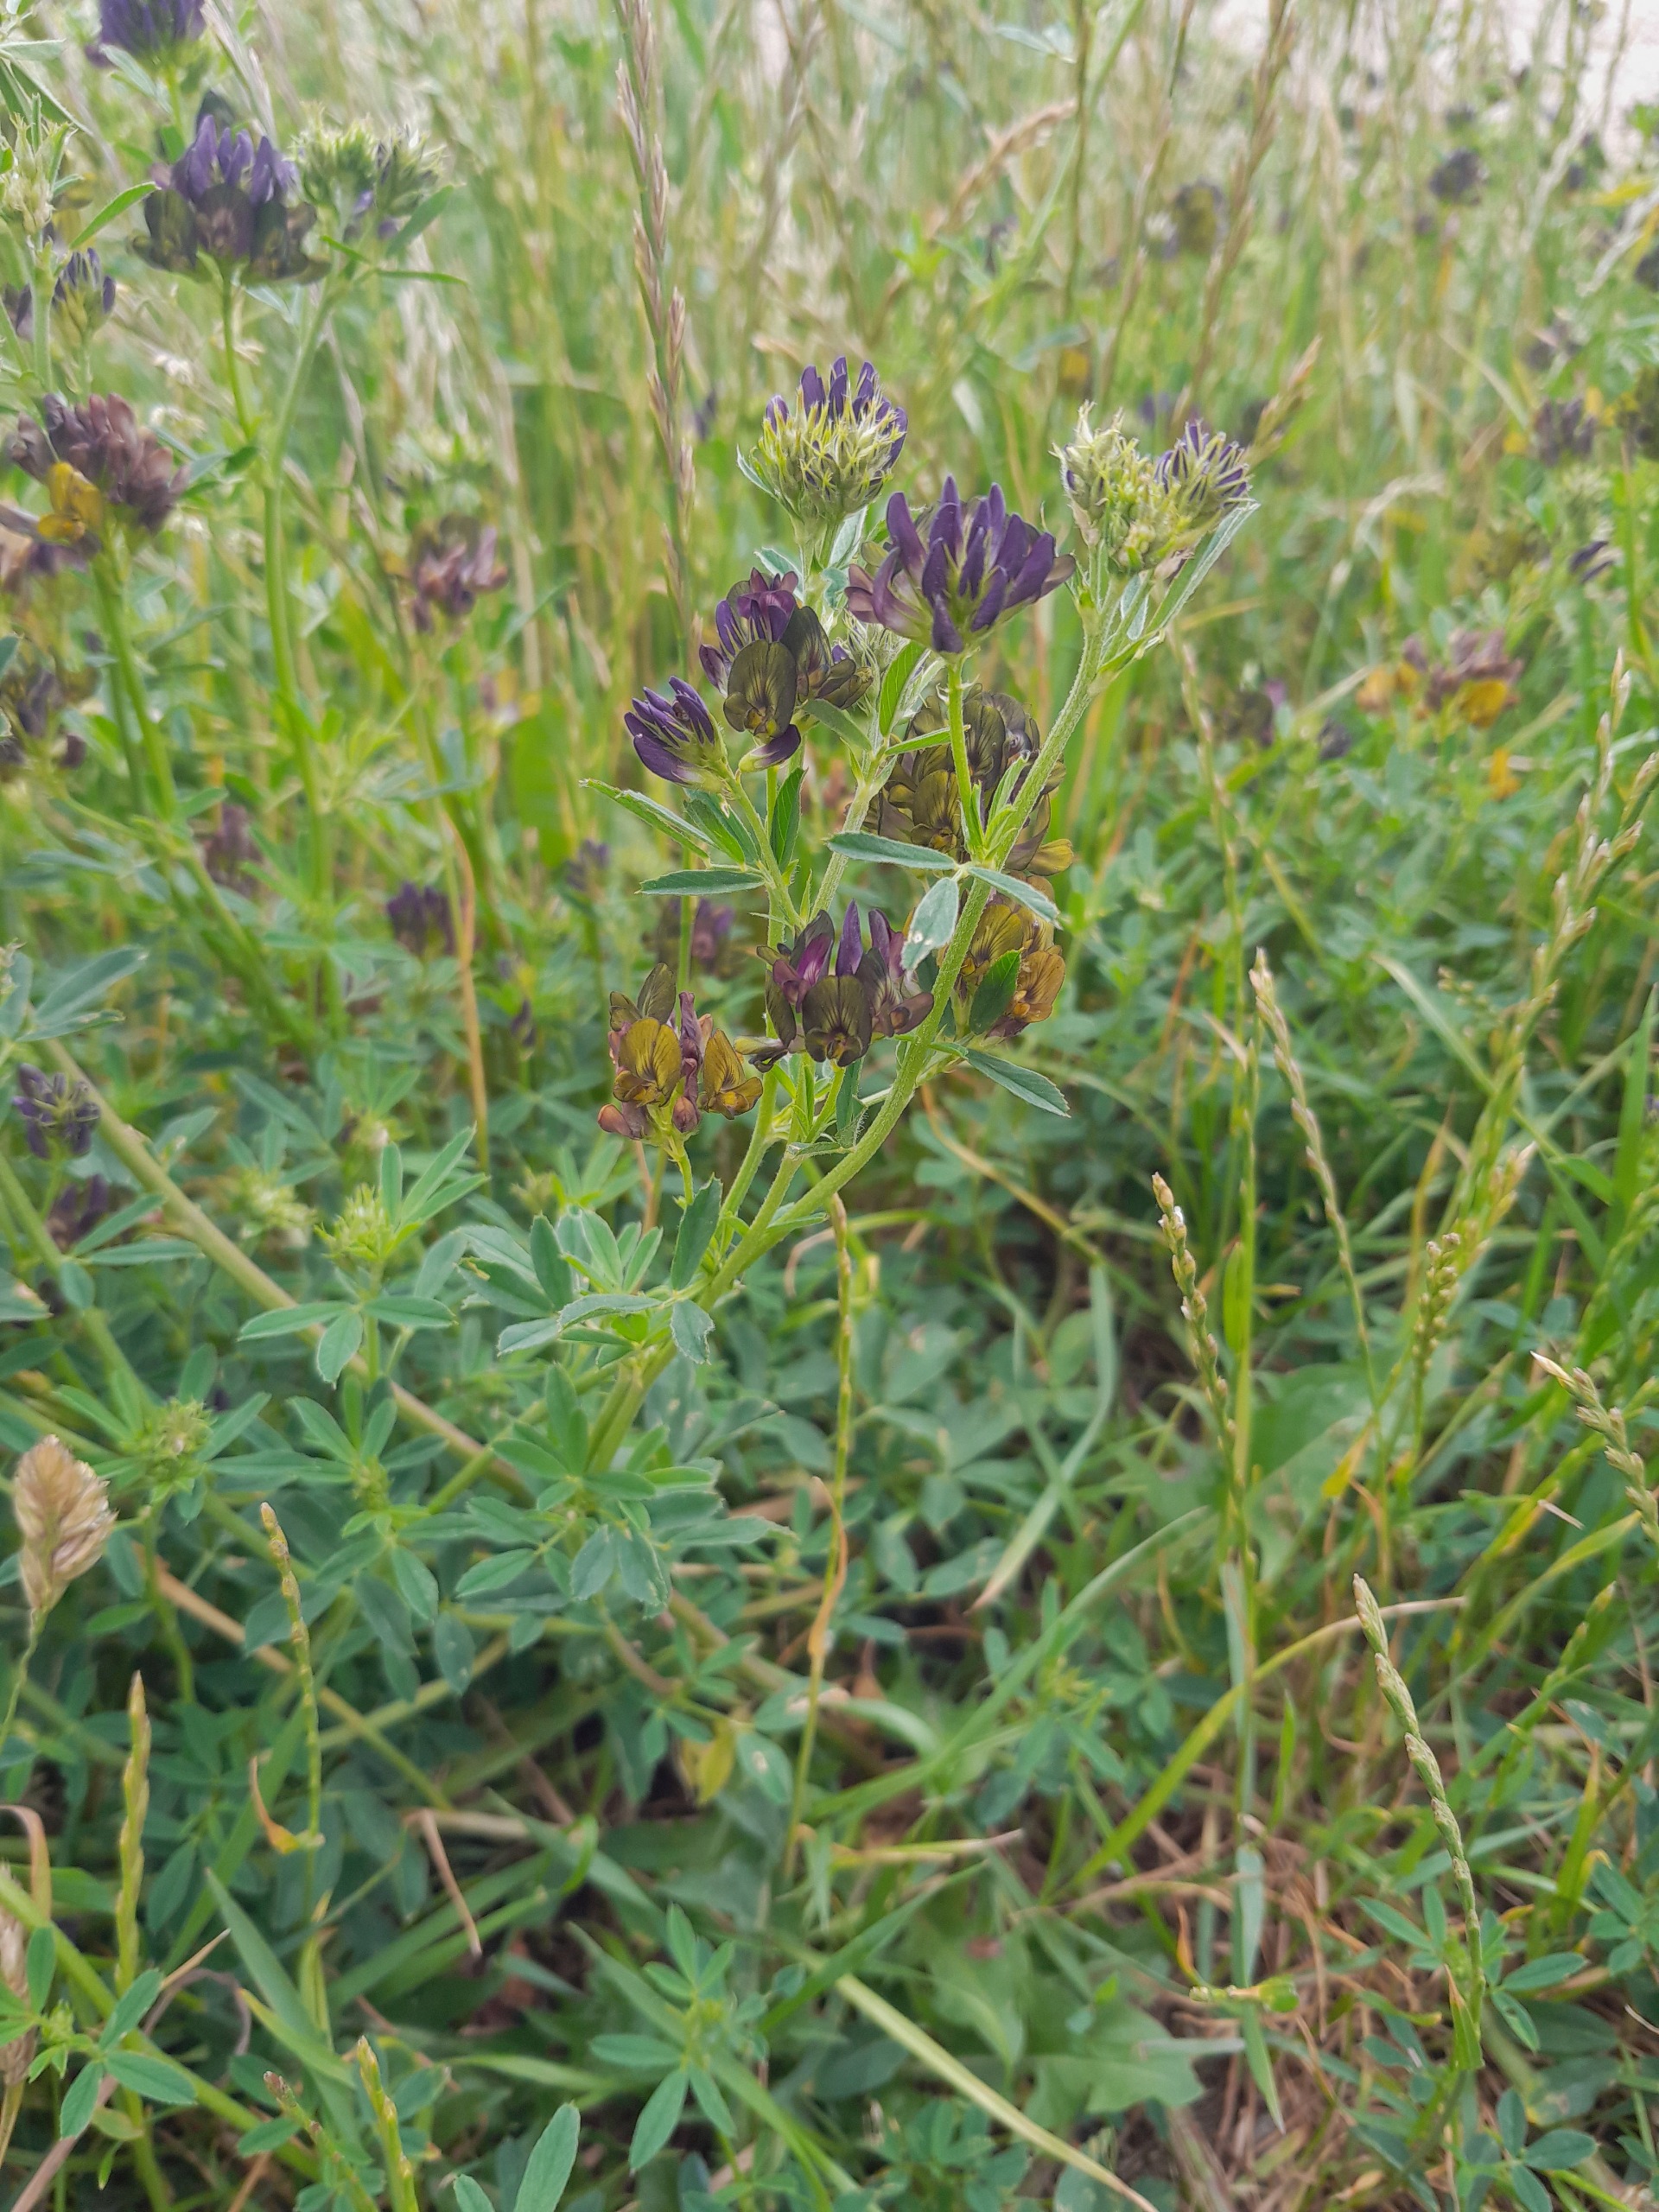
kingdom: Plantae
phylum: Tracheophyta
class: Magnoliopsida
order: Fabales
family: Fabaceae
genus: Medicago
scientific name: Medicago varia
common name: Sand-lucerne
